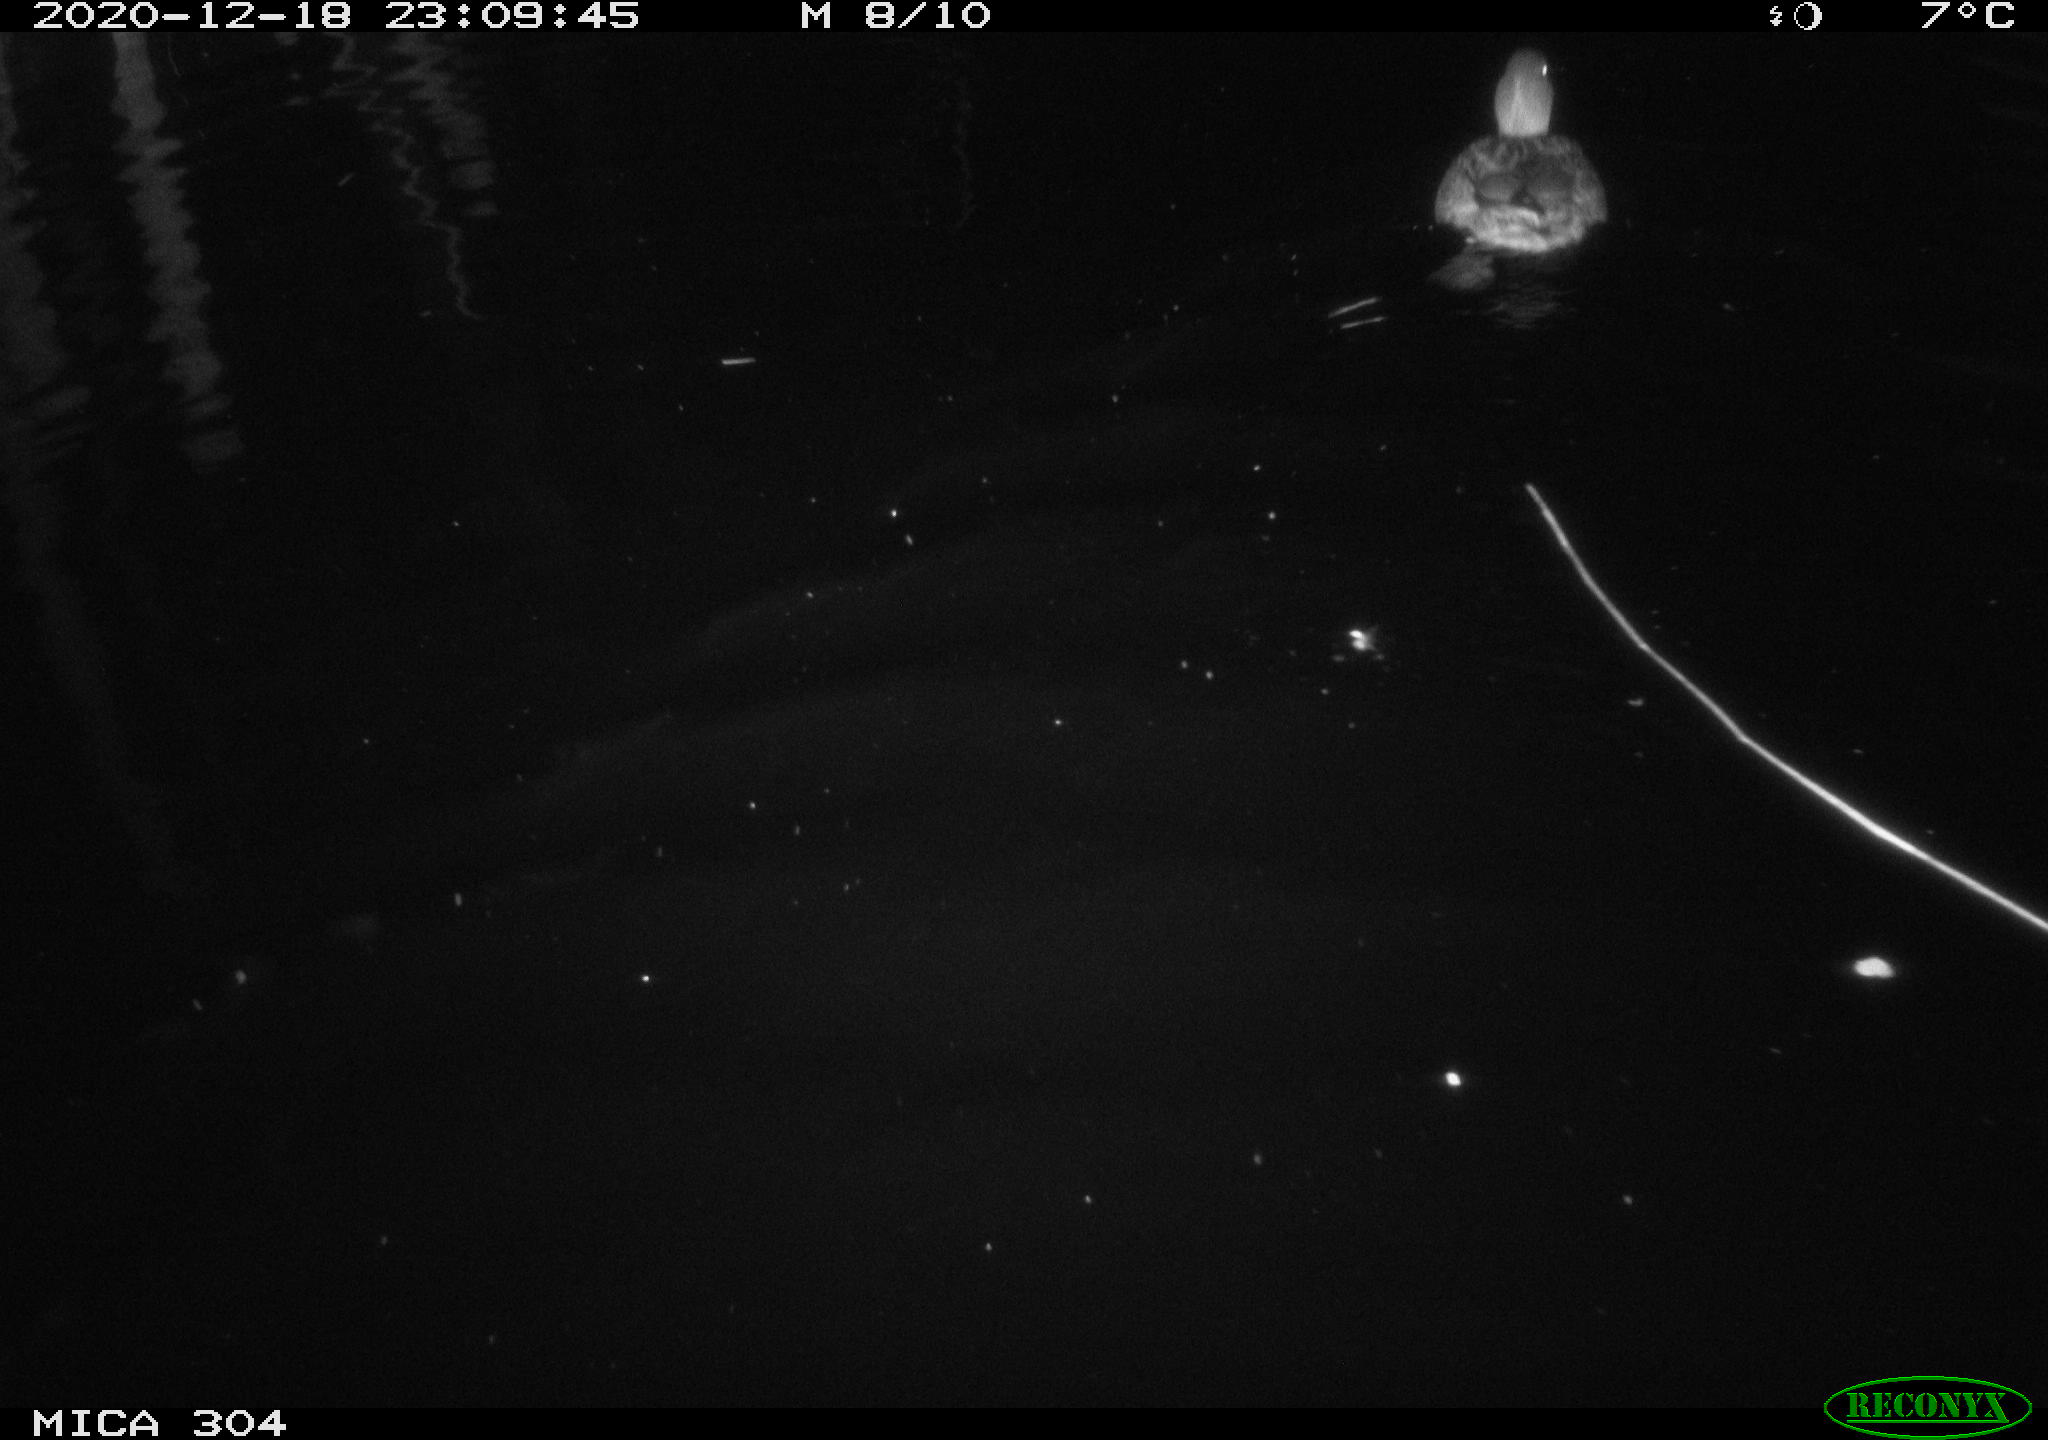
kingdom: Animalia
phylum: Chordata
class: Aves
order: Anseriformes
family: Anatidae
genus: Anas
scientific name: Anas platyrhynchos
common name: Mallard
